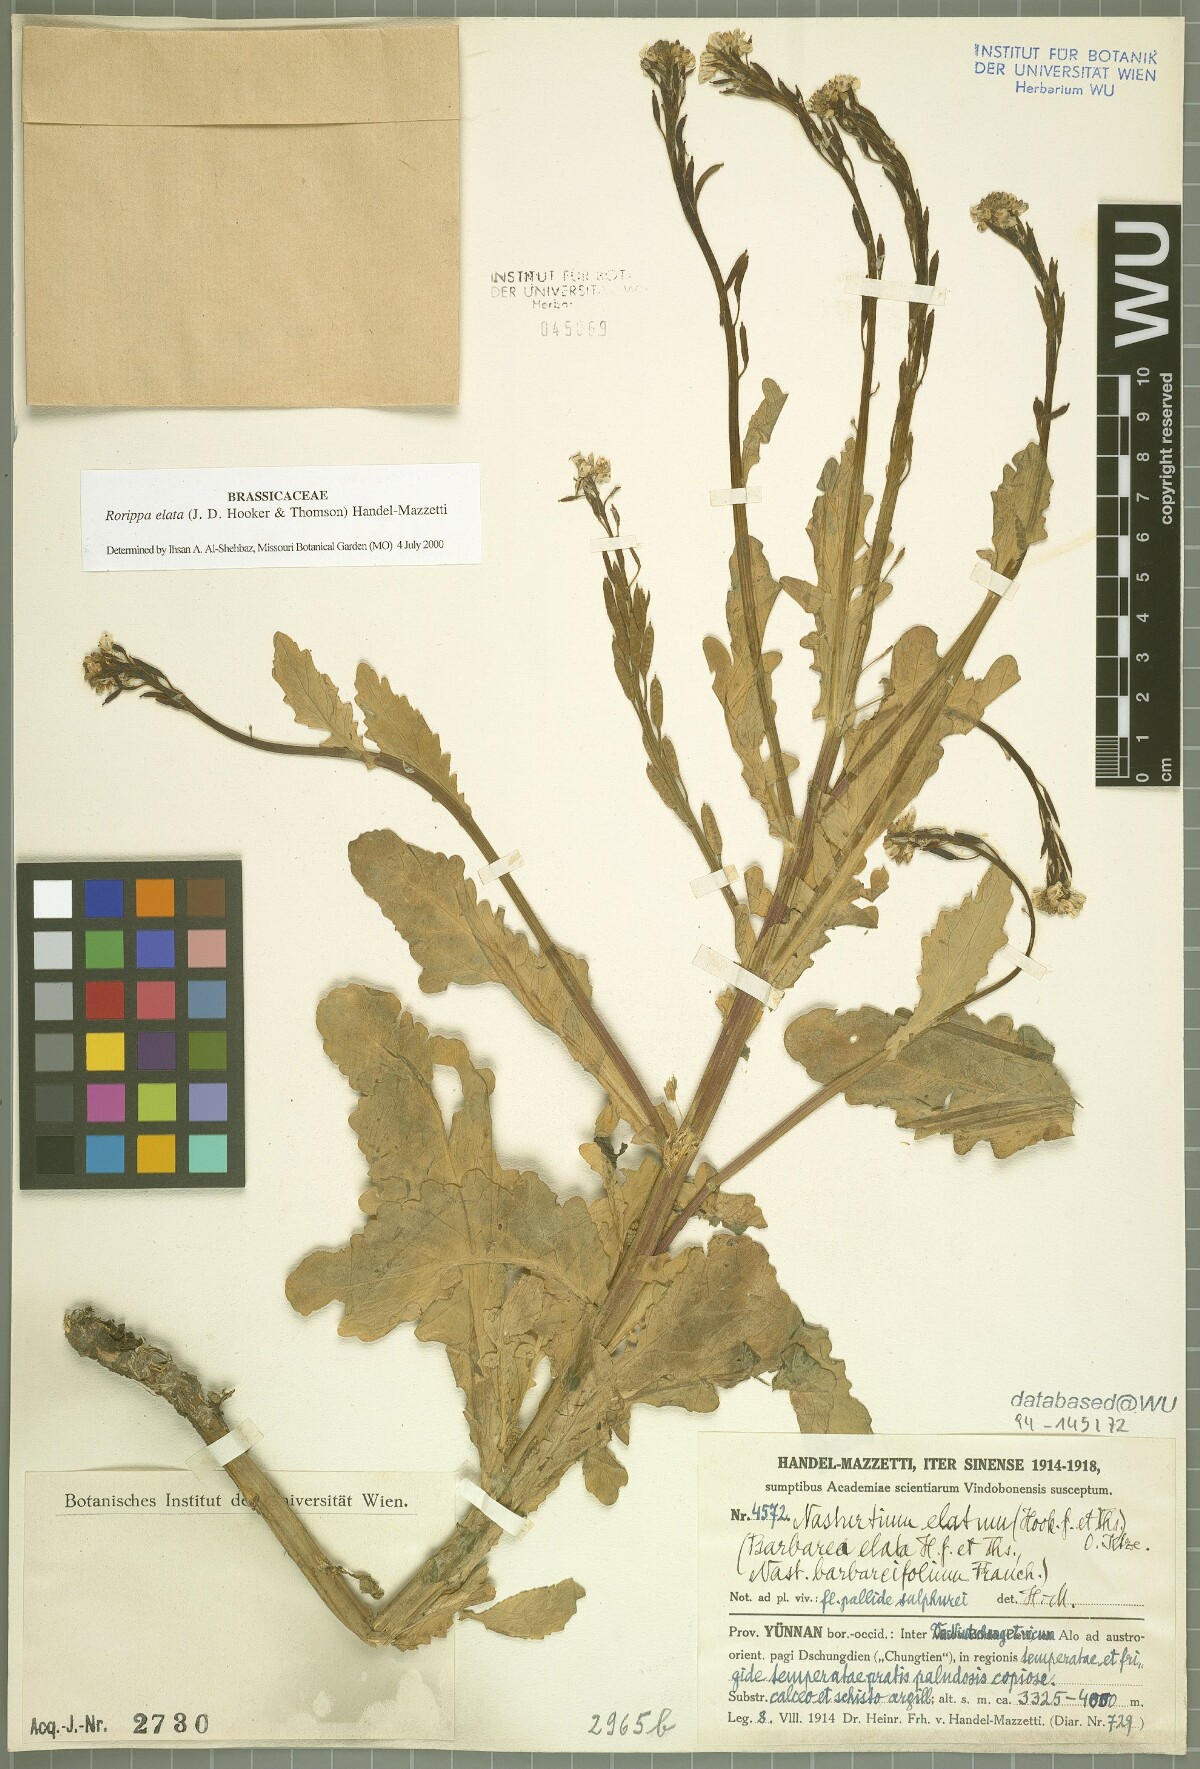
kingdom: Plantae
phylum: Tracheophyta
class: Magnoliopsida
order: Brassicales
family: Brassicaceae
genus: Rorippa
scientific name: Rorippa elata
